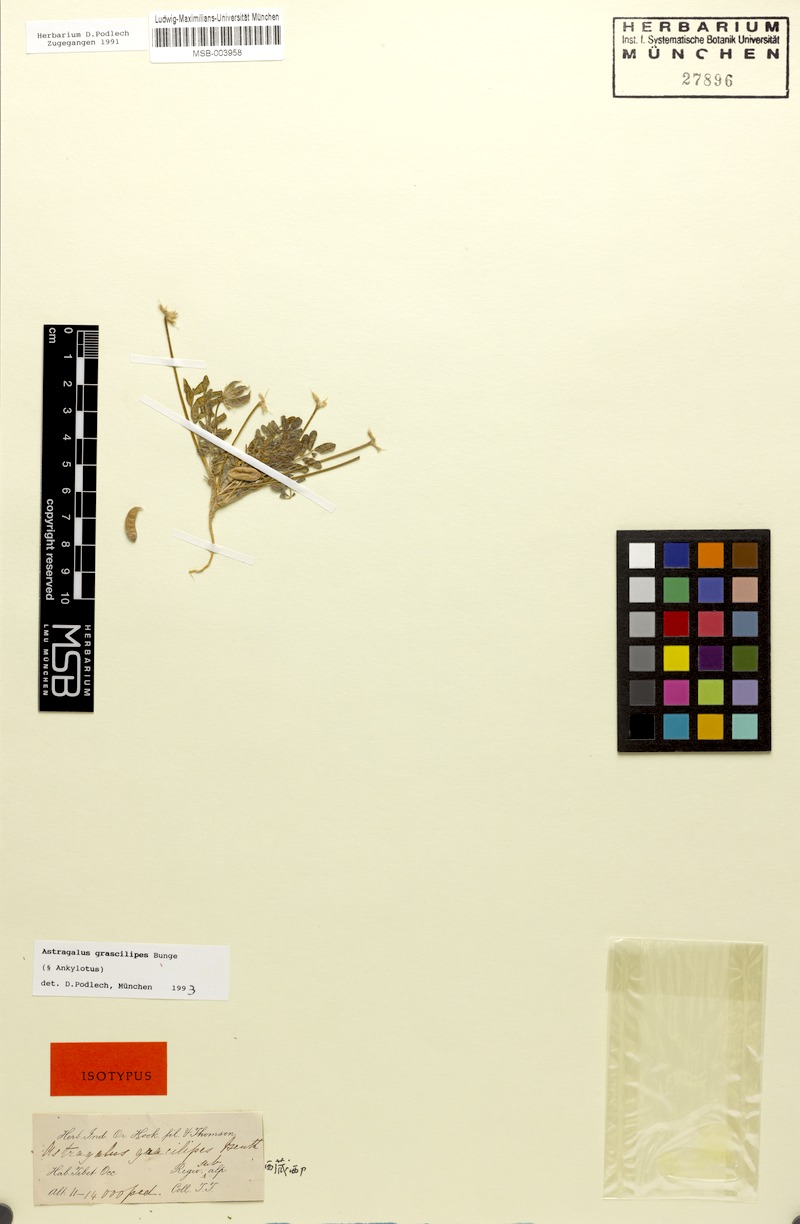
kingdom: Plantae
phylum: Tracheophyta
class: Magnoliopsida
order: Fabales
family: Fabaceae
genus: Astragalus
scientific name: Astragalus lineatus
